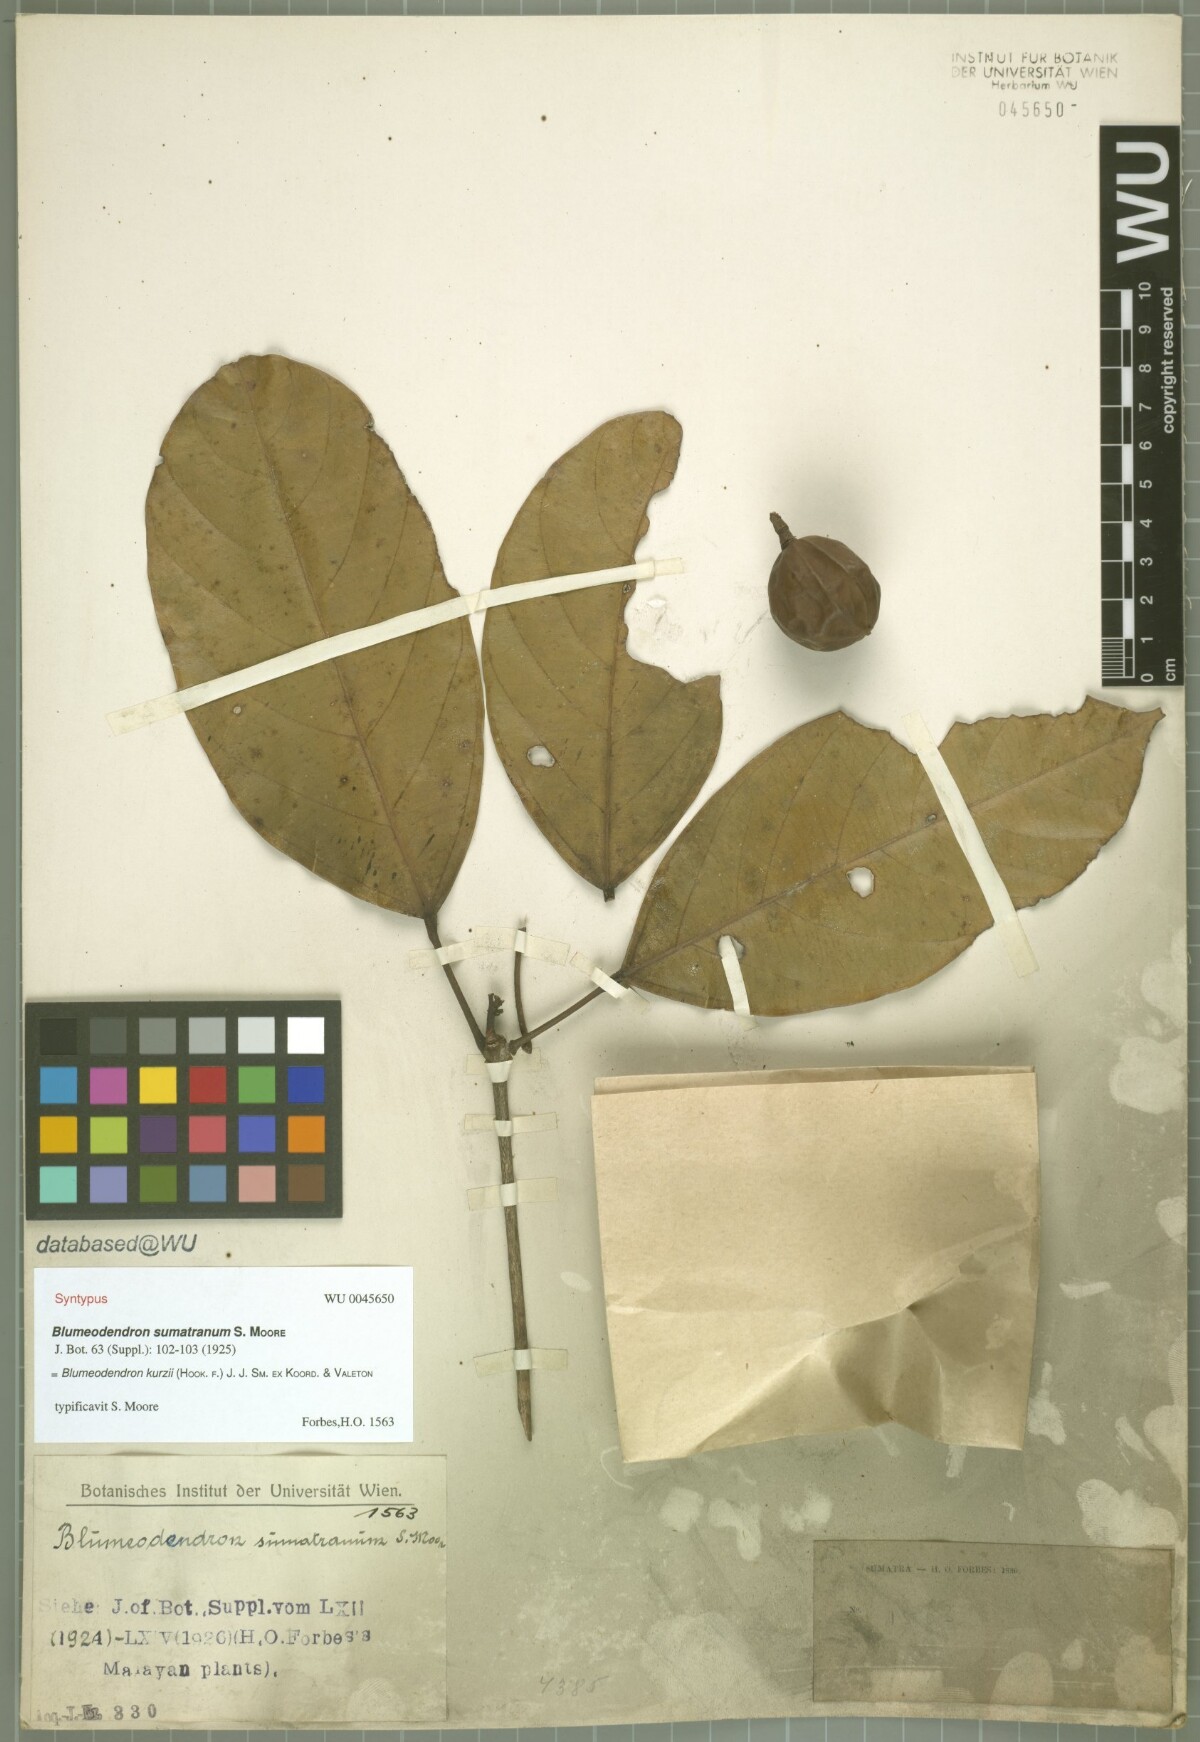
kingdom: Plantae
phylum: Tracheophyta
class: Magnoliopsida
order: Malpighiales
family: Euphorbiaceae
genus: Blumeodendron
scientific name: Blumeodendron kurzii
